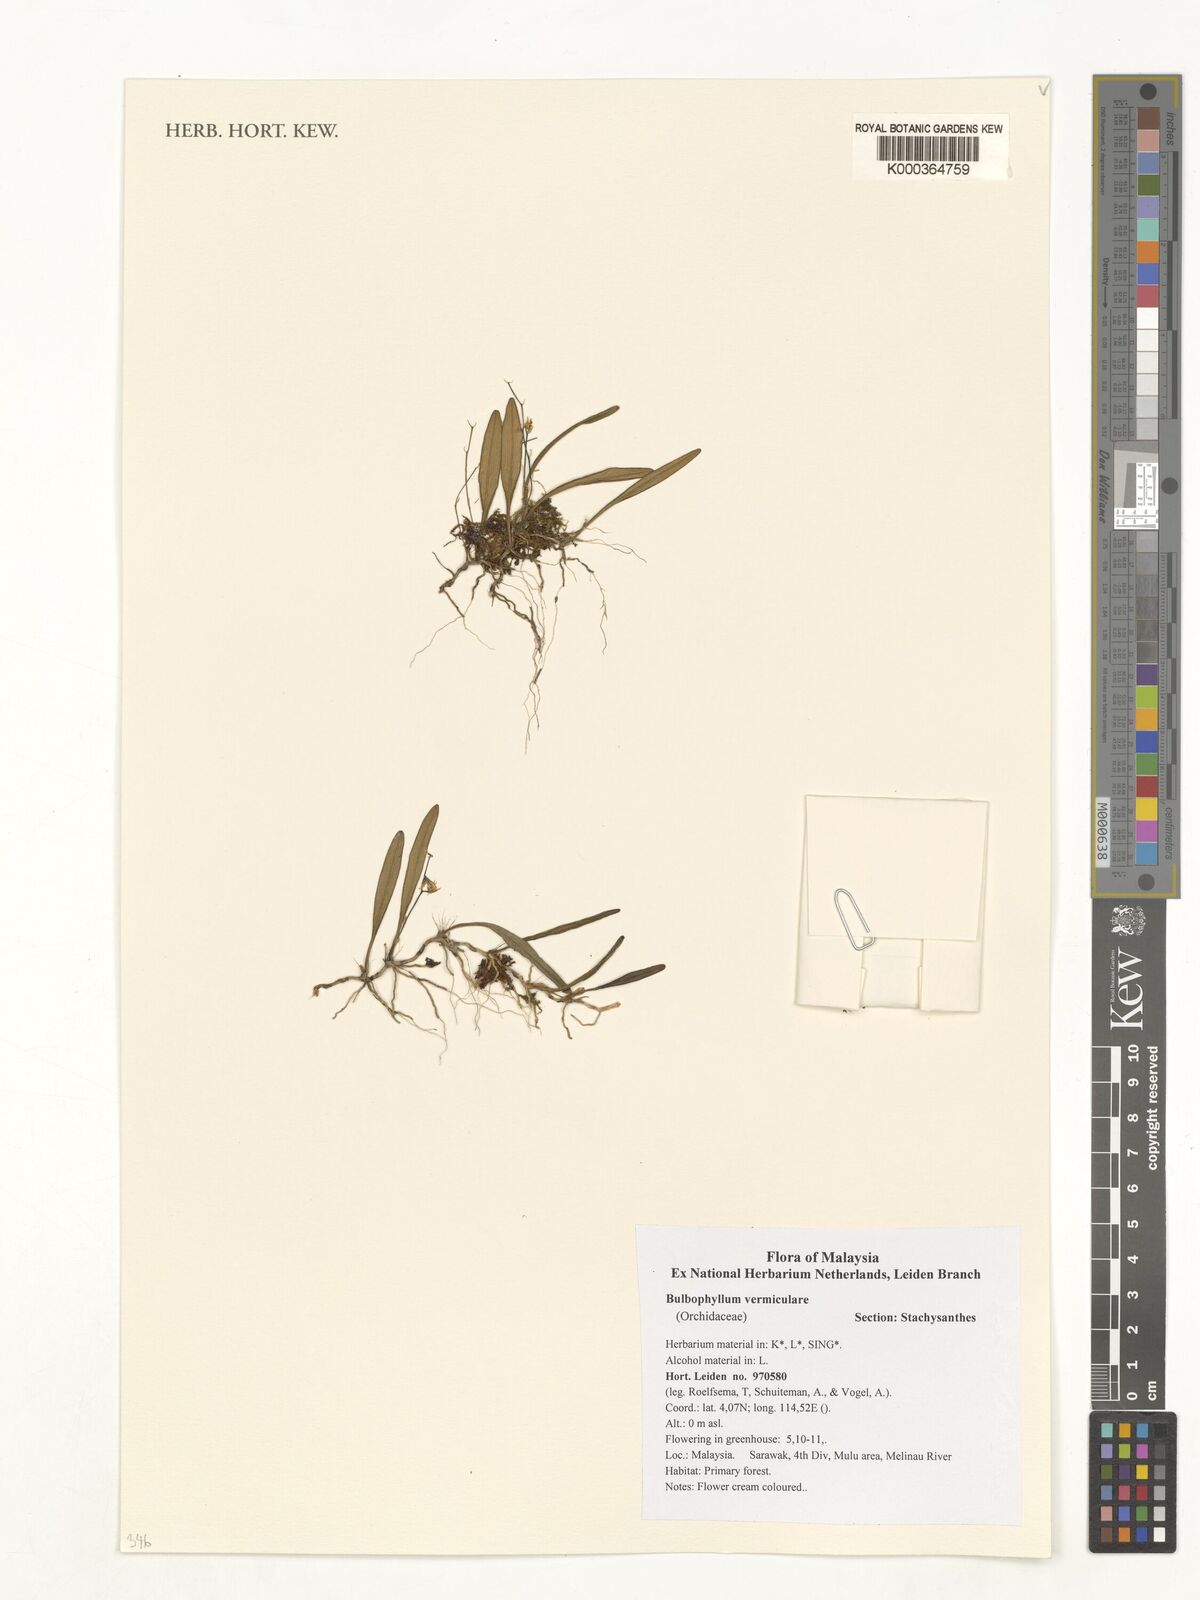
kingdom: Plantae
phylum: Tracheophyta
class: Liliopsida
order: Asparagales
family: Orchidaceae
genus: Bulbophyllum
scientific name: Bulbophyllum vermiculare
